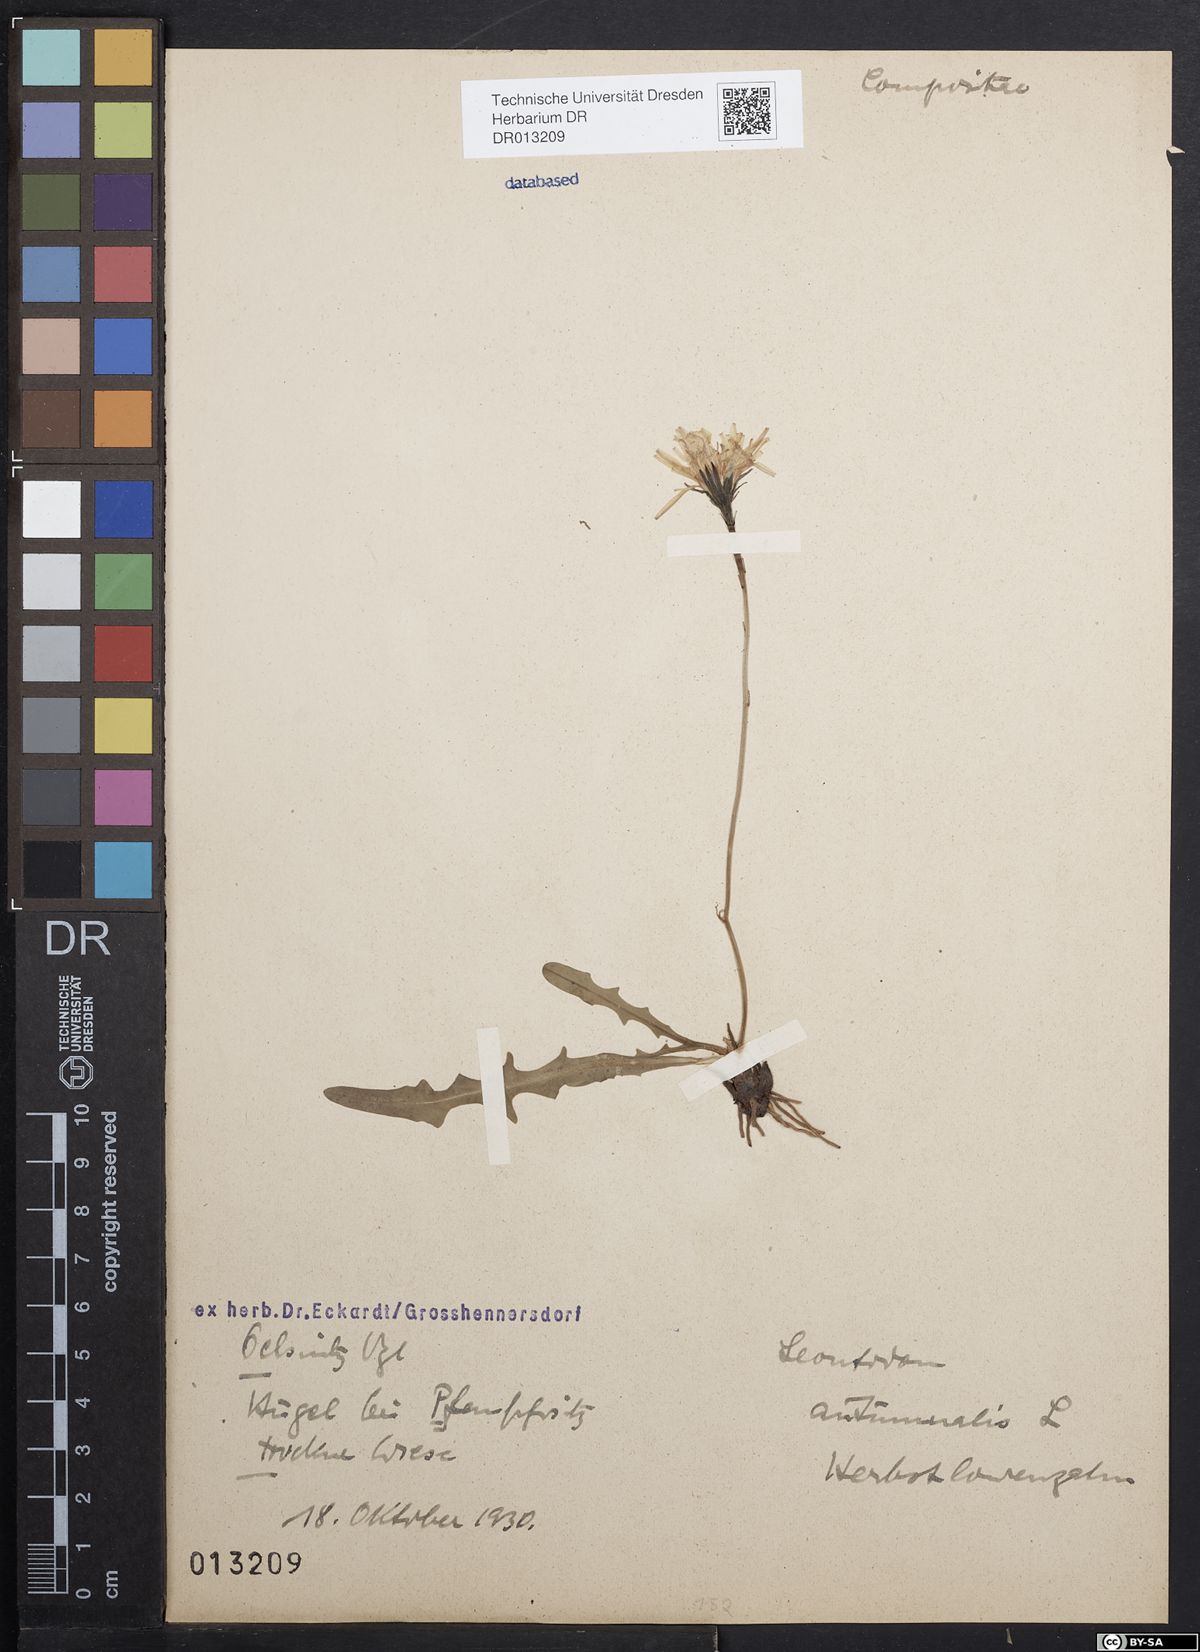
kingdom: Plantae
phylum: Tracheophyta
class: Magnoliopsida
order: Asterales
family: Asteraceae
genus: Scorzoneroides
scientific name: Scorzoneroides autumnalis
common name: Autumn hawkbit
